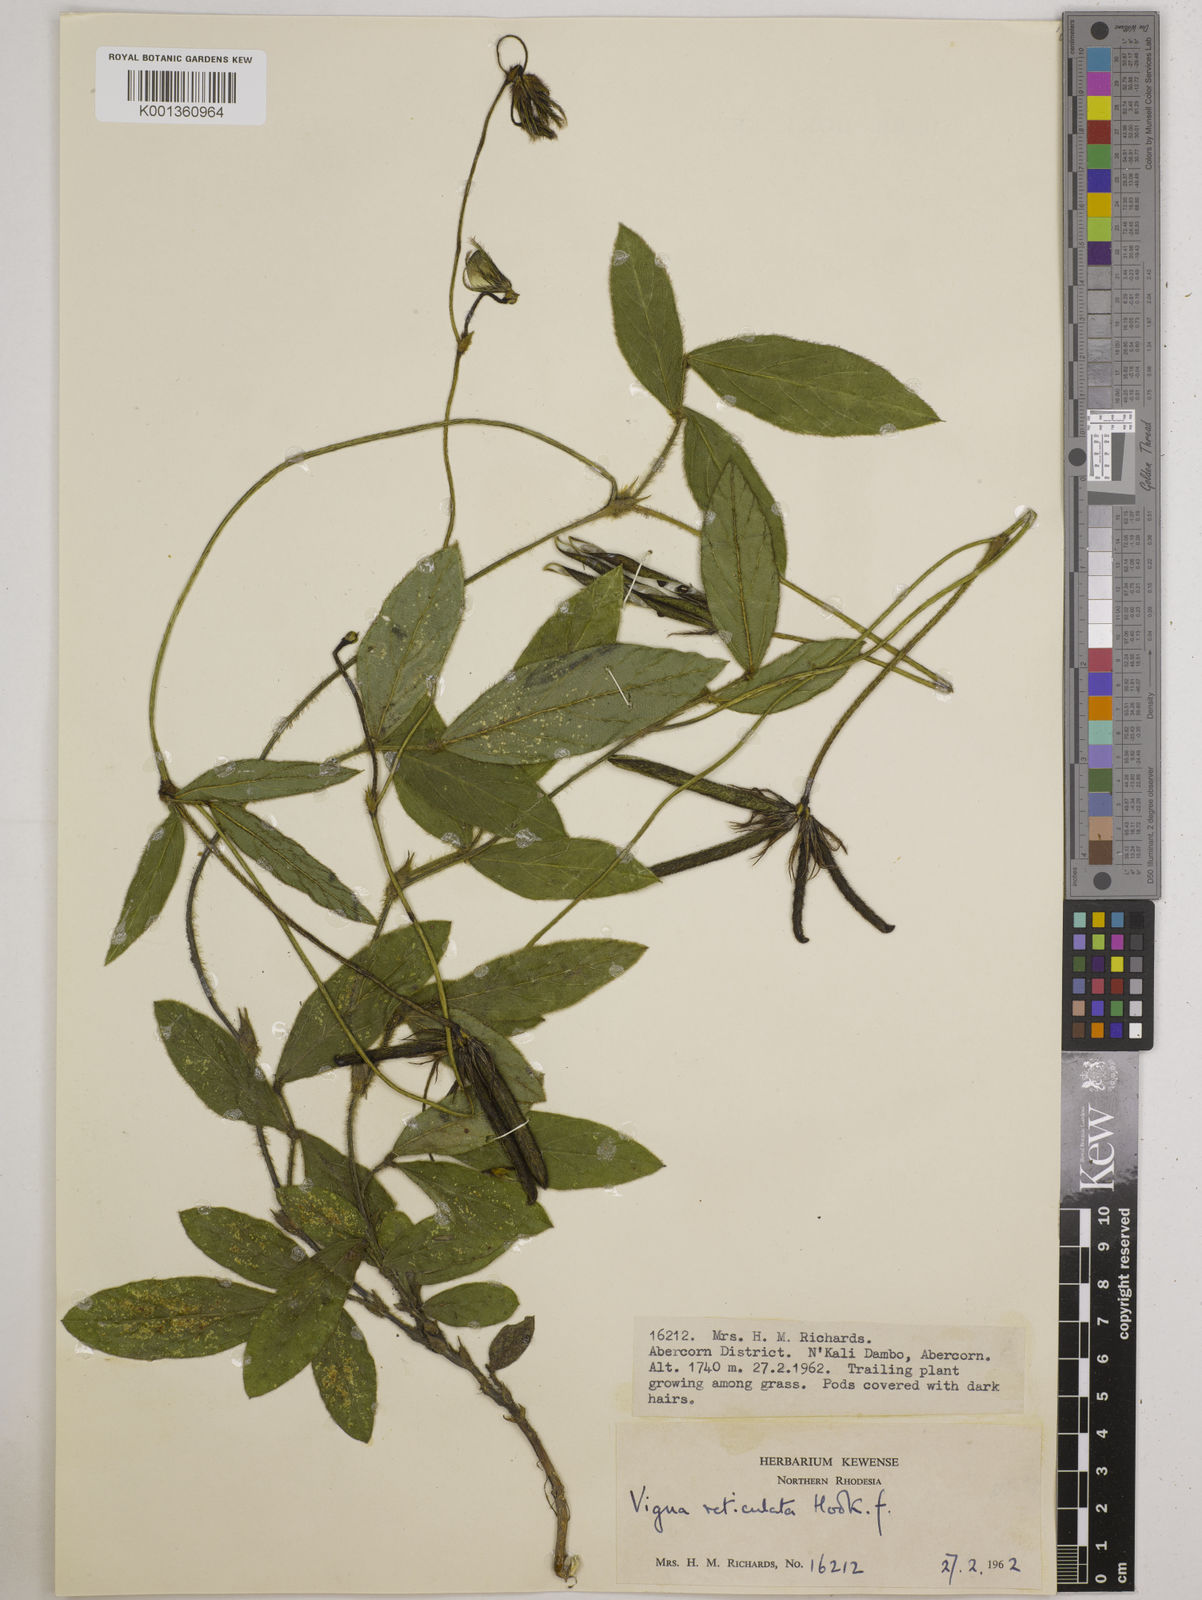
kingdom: Plantae
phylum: Tracheophyta
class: Magnoliopsida
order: Fabales
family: Fabaceae
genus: Vigna
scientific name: Vigna reticulata
